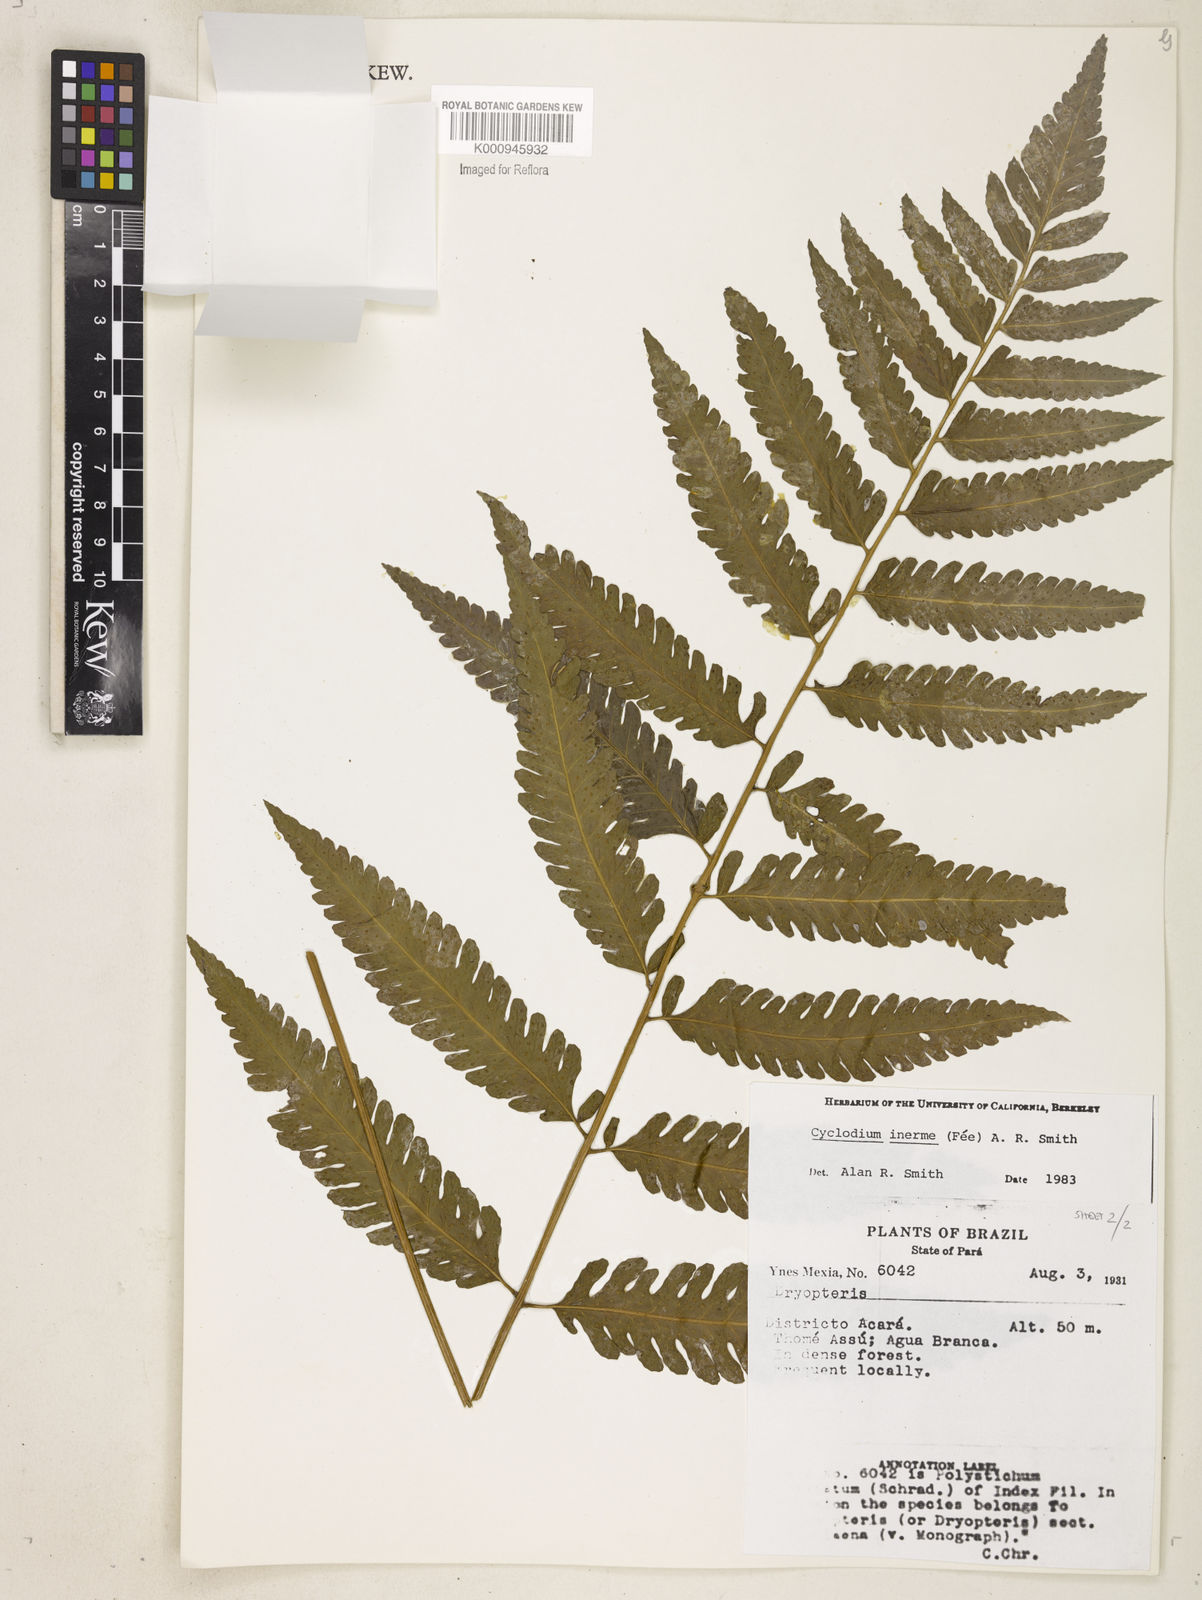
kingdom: Plantae
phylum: Tracheophyta
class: Polypodiopsida
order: Polypodiales
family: Dryopteridaceae
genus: Cyclodium
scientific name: Cyclodium
